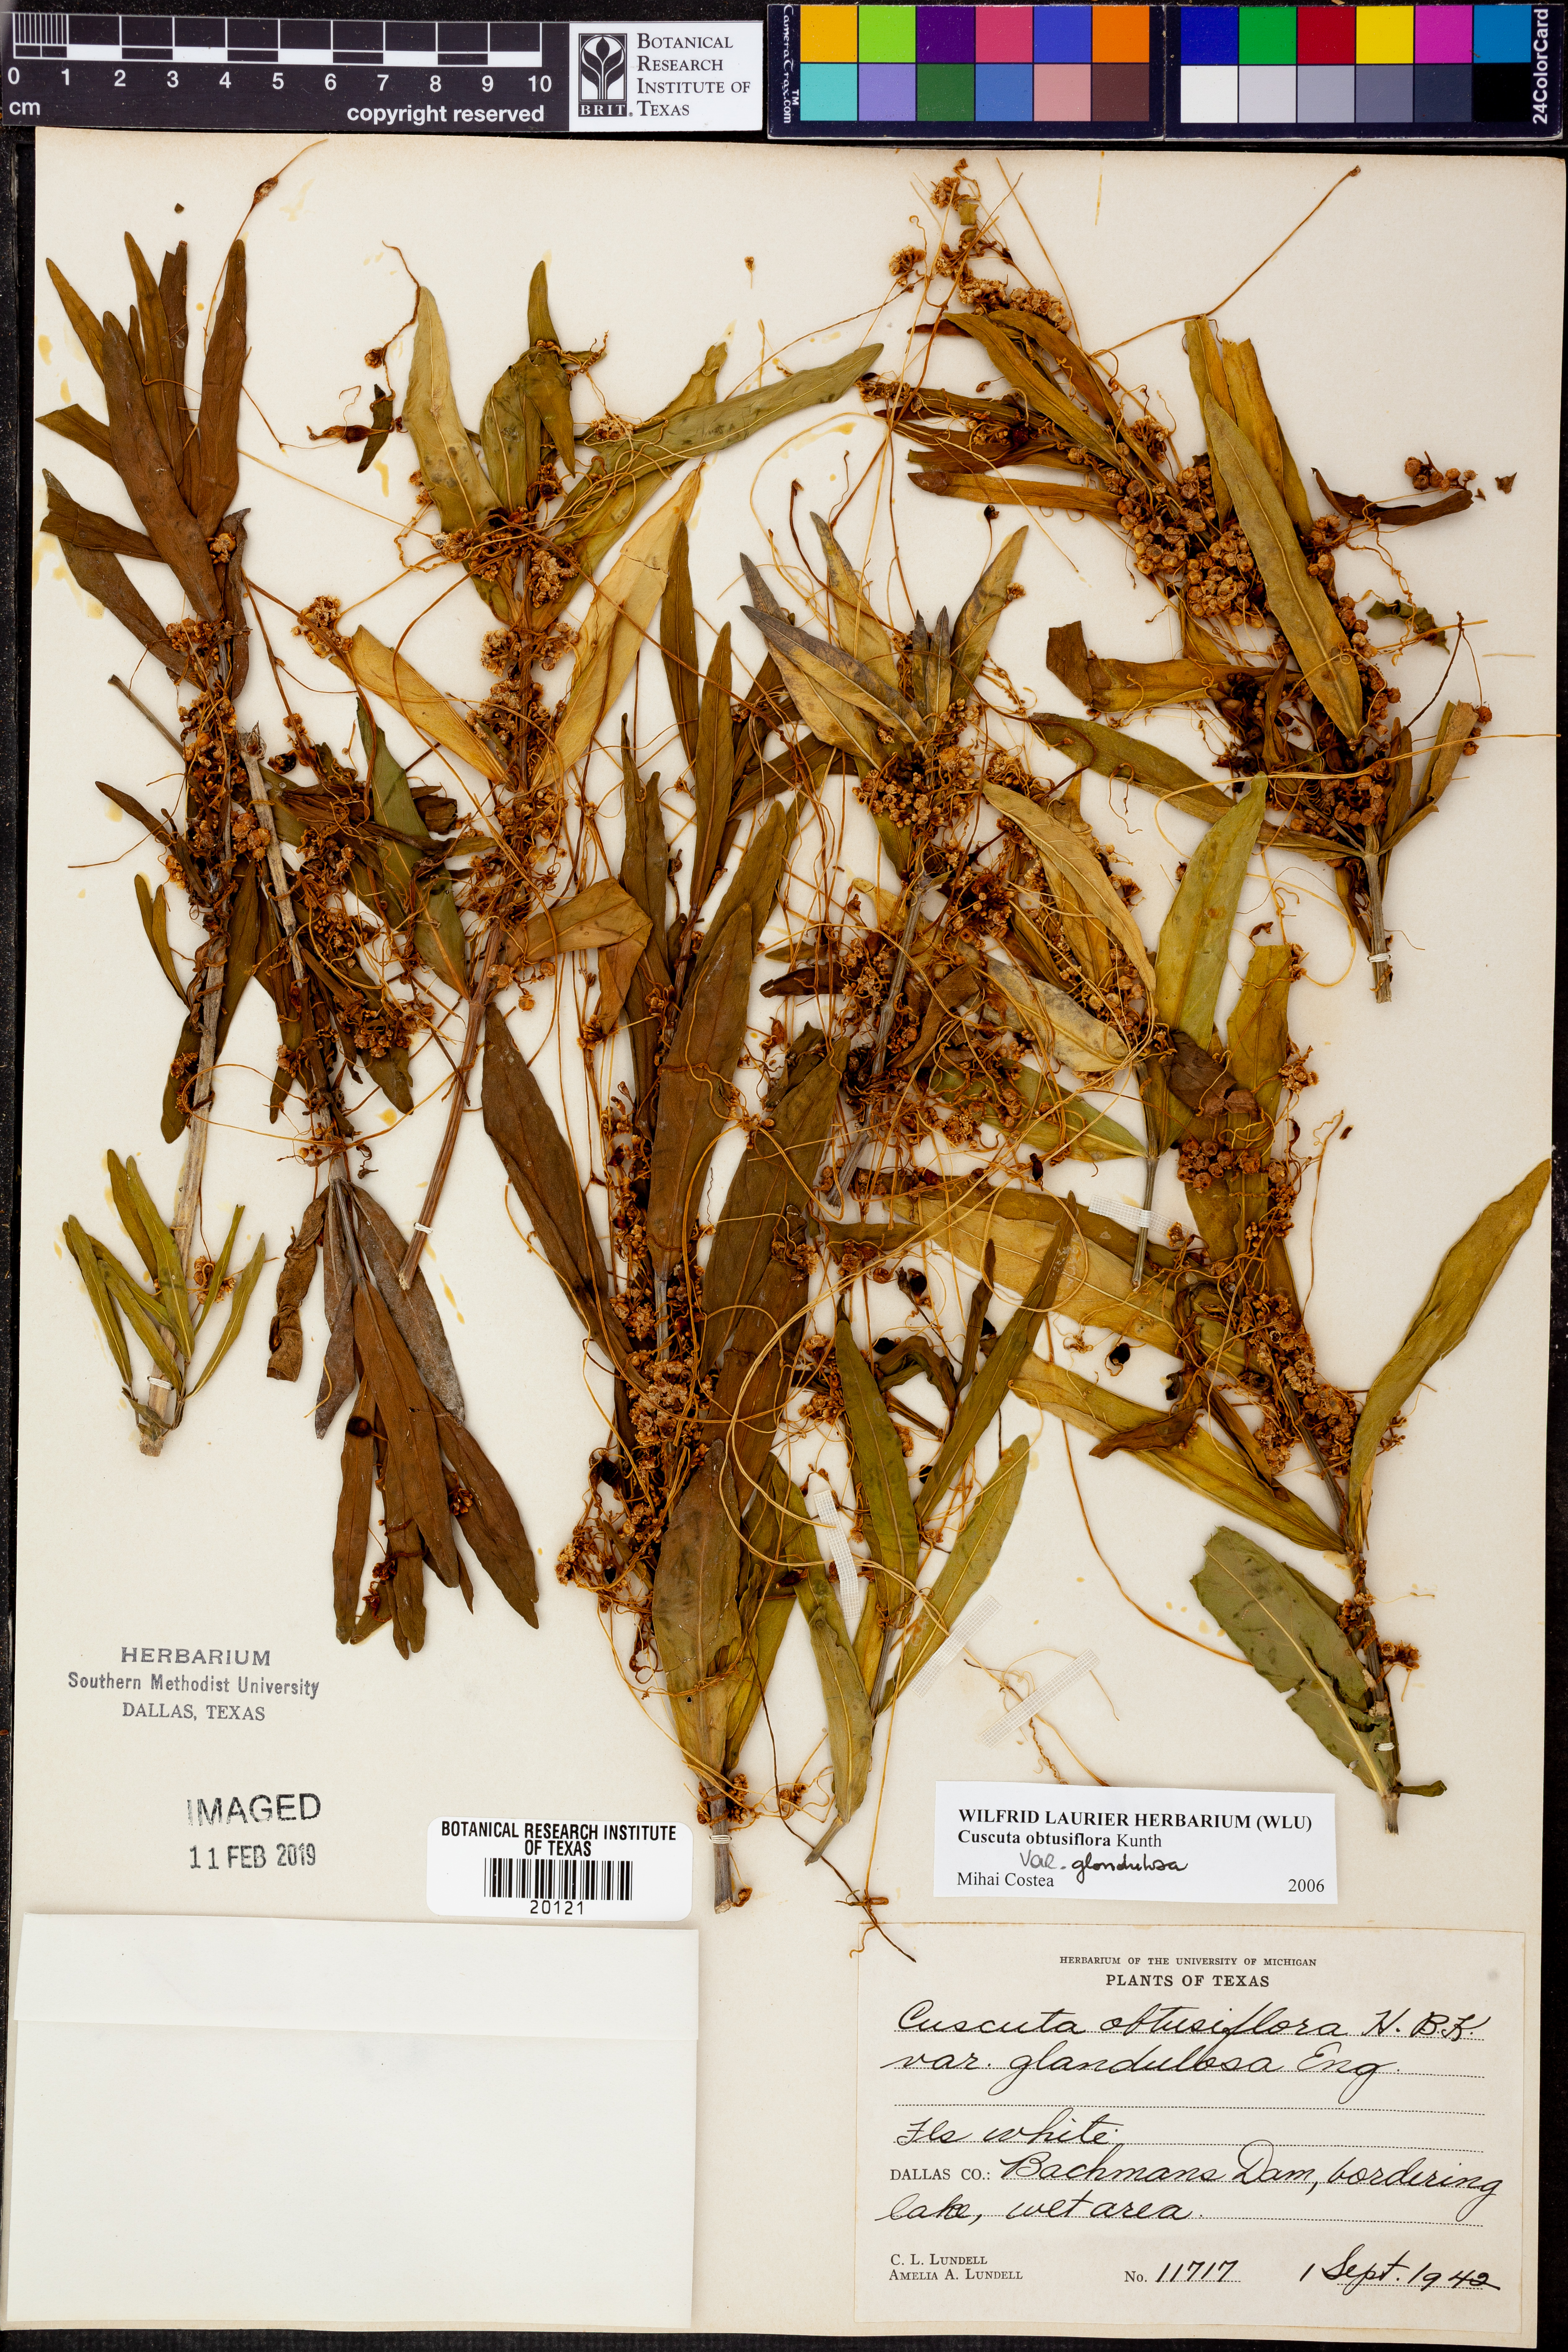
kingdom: Plantae
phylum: Tracheophyta
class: Magnoliopsida
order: Solanales
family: Convolvulaceae
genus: Cuscuta
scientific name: Cuscuta obtusiflora
